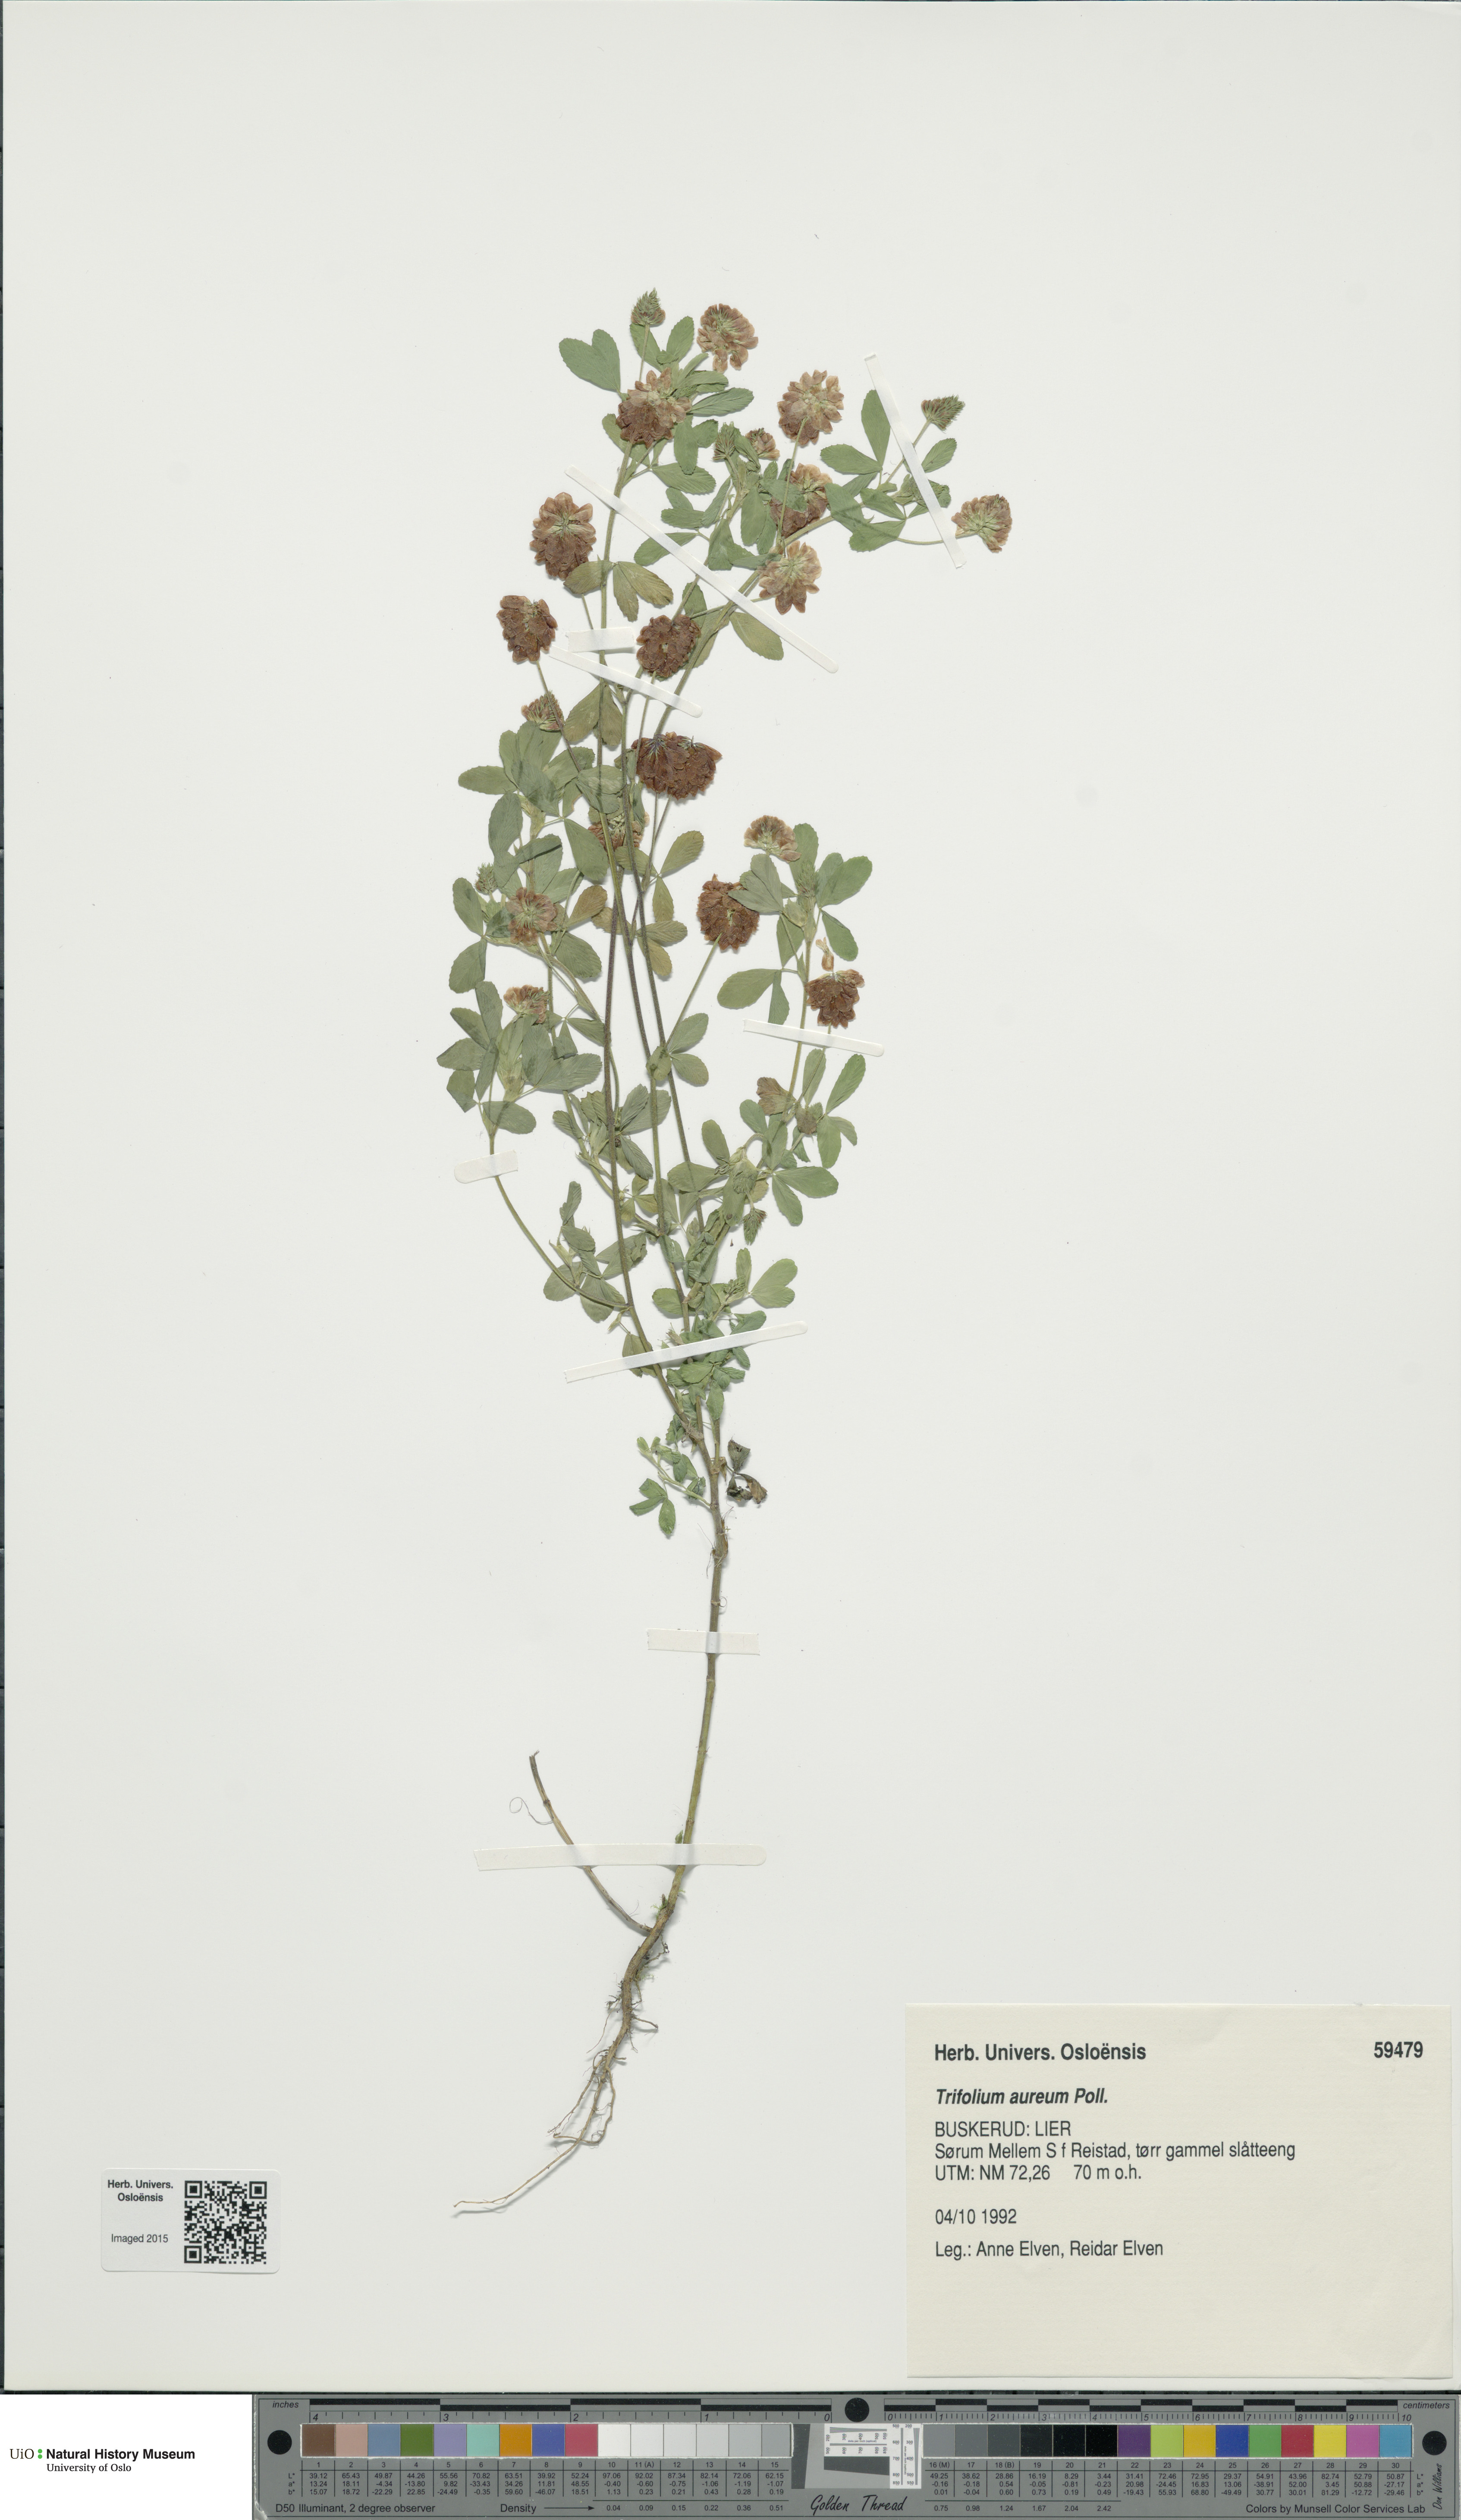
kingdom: Plantae
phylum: Tracheophyta
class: Magnoliopsida
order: Fabales
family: Fabaceae
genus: Trifolium
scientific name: Trifolium aureum
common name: Golden clover
